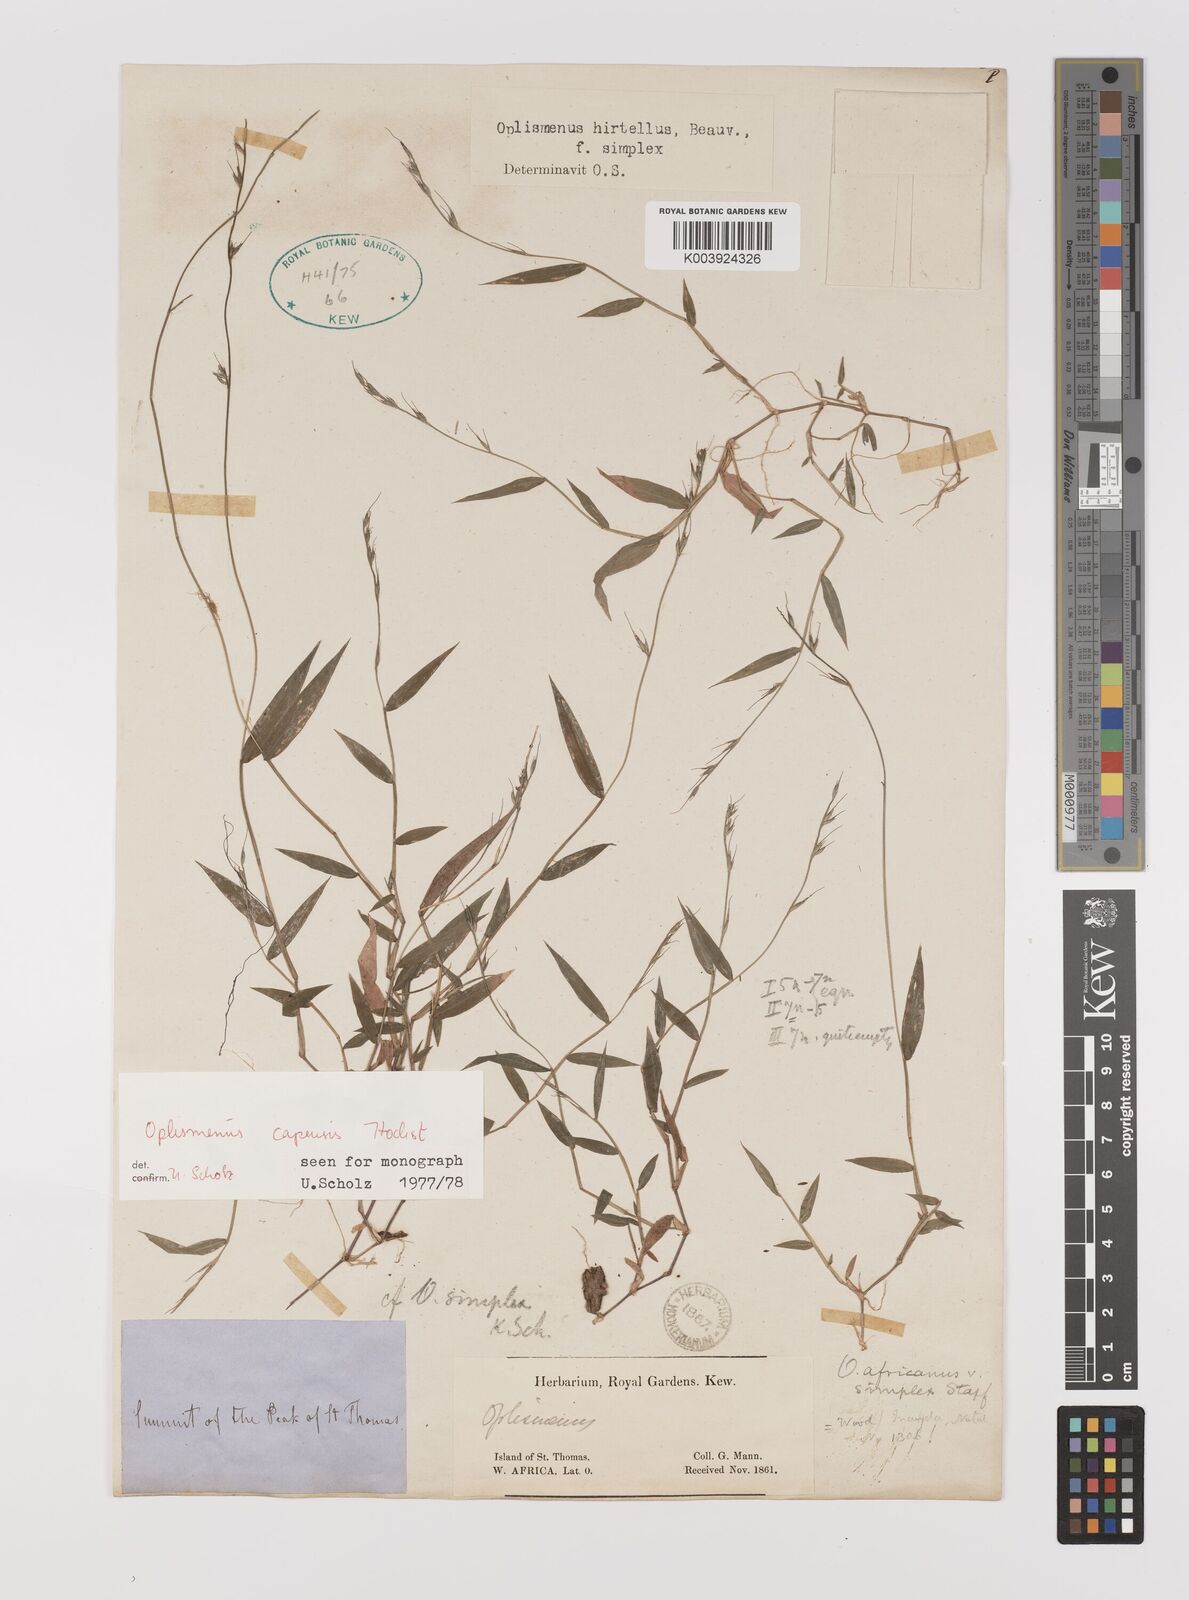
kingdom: Plantae
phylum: Tracheophyta
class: Liliopsida
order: Poales
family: Poaceae
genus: Oplismenus
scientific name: Oplismenus hirtellus
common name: Basketgrass
